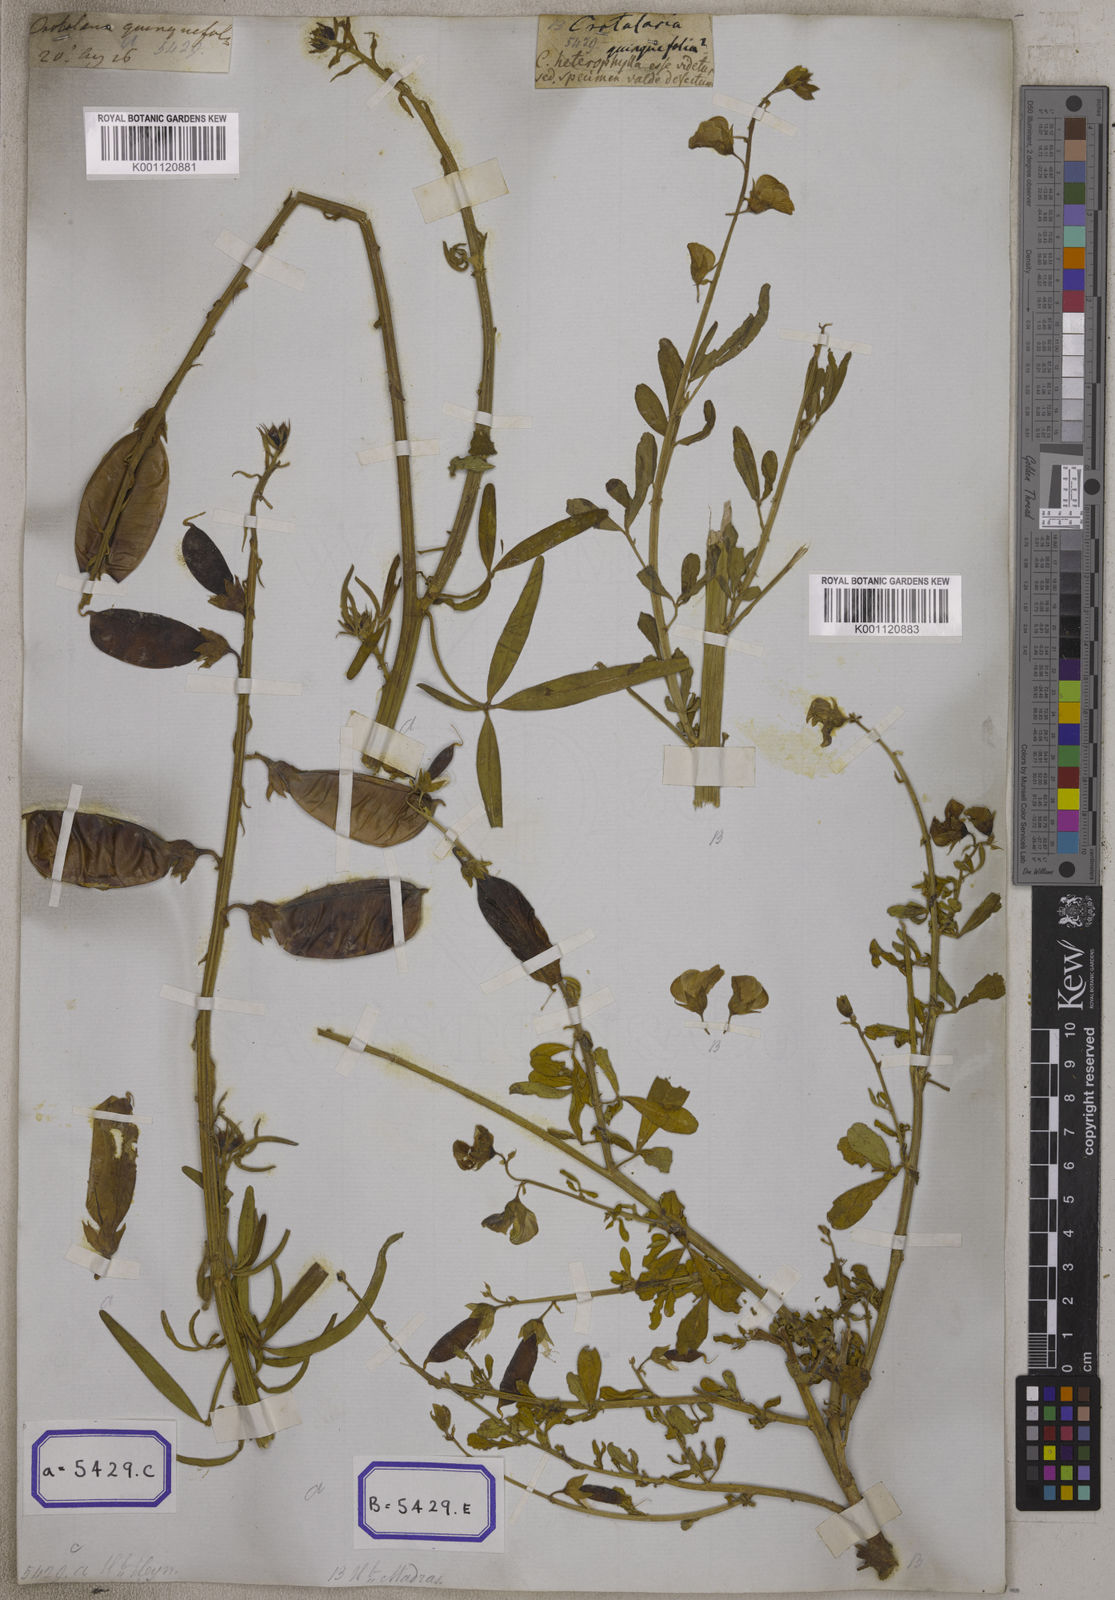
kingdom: Plantae
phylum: Tracheophyta
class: Magnoliopsida
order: Fabales
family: Fabaceae
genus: Crotalaria
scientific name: Crotalaria quinquefolia
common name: Five-leaf crotalaria
